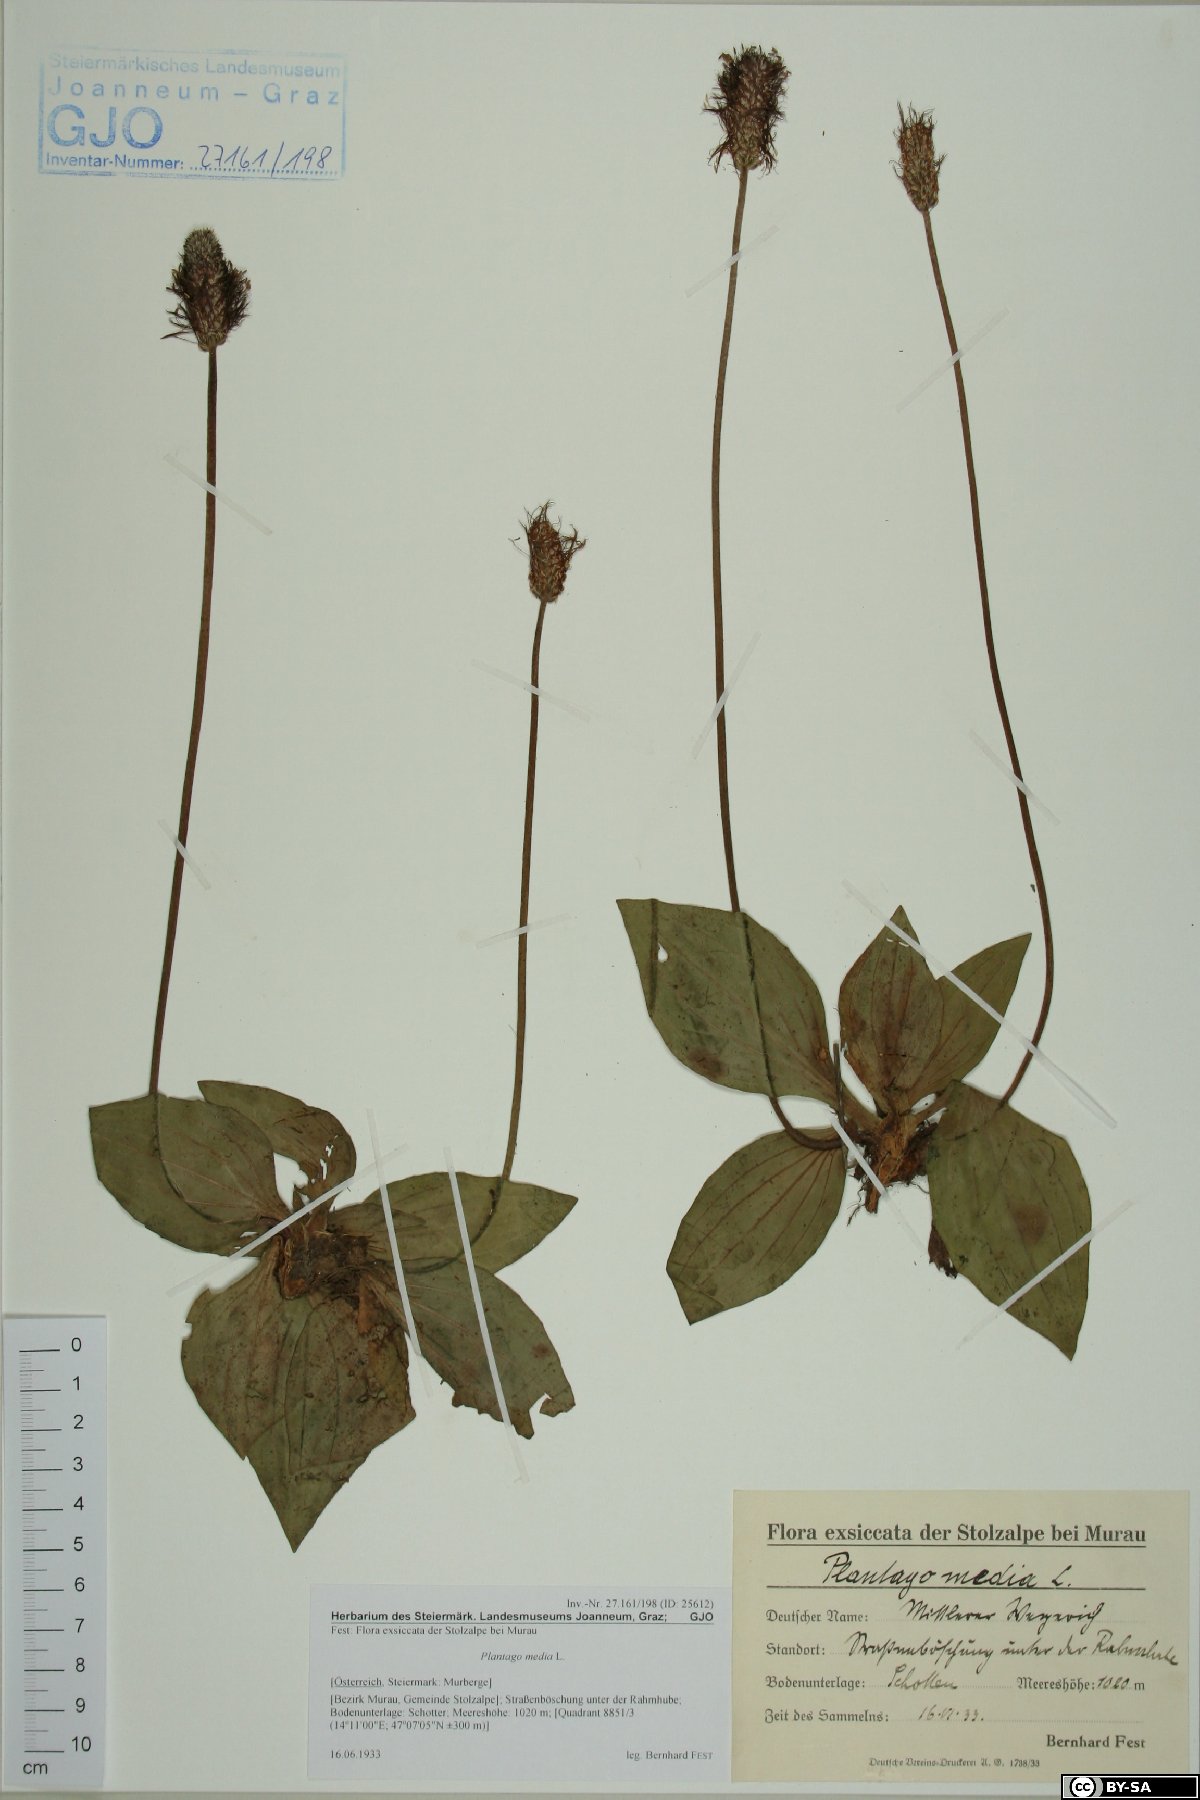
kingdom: Plantae
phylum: Tracheophyta
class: Magnoliopsida
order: Lamiales
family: Plantaginaceae
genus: Plantago
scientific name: Plantago media
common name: Hoary plantain
